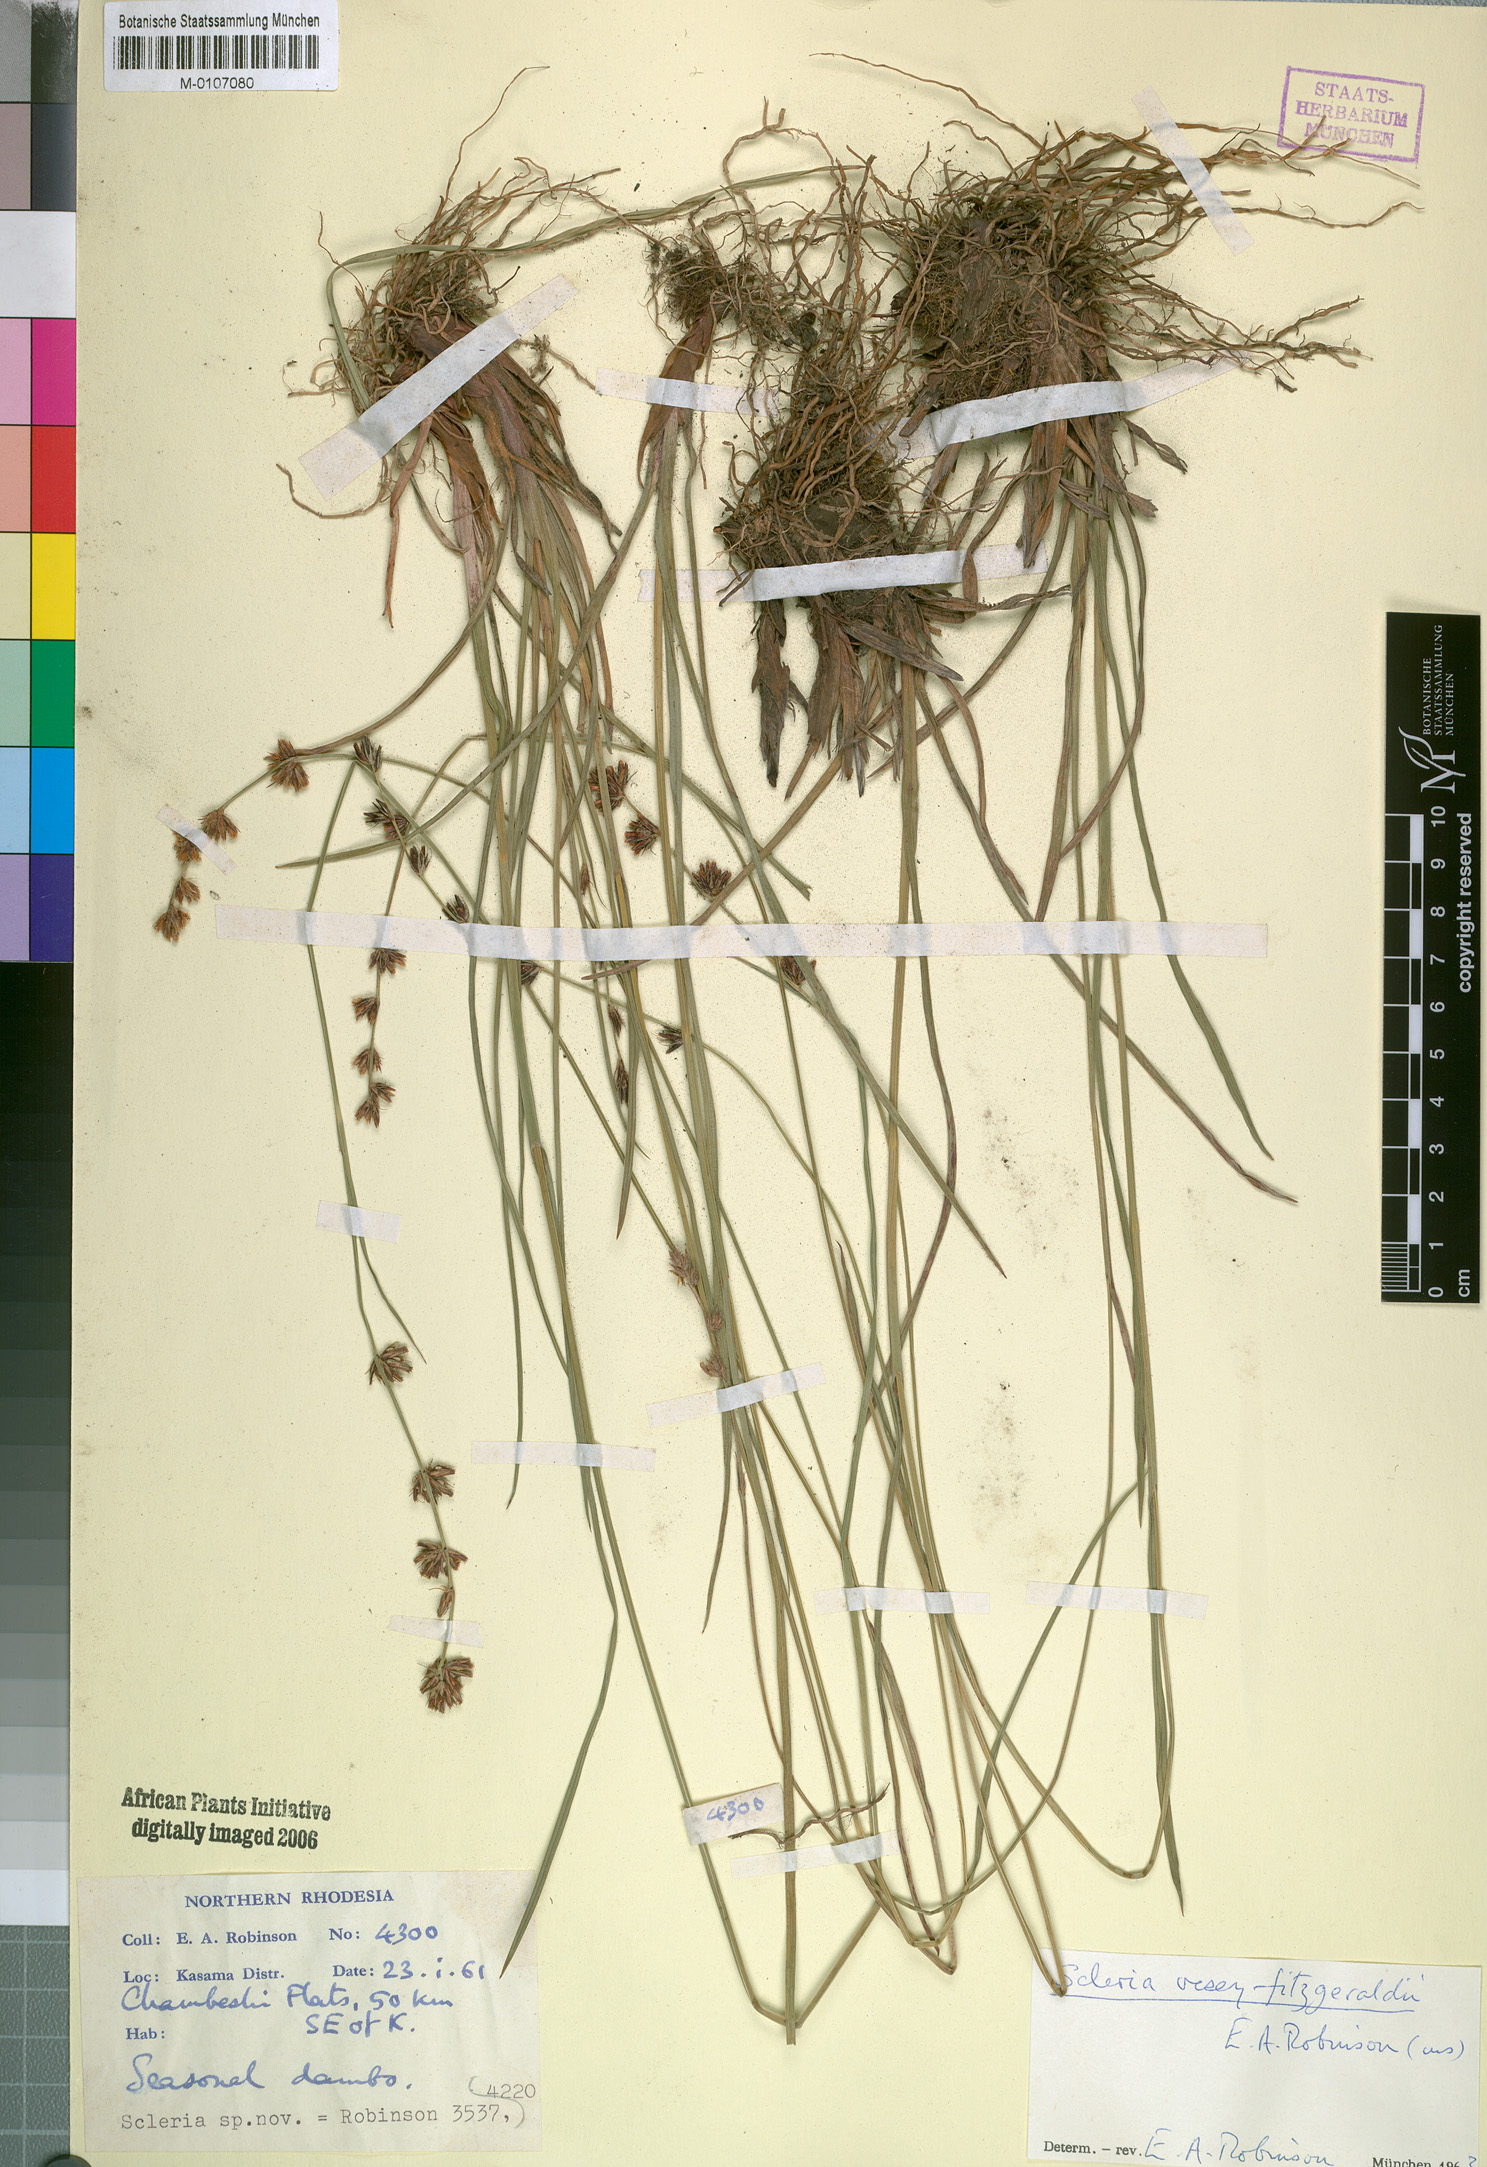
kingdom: Plantae
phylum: Tracheophyta
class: Liliopsida
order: Poales
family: Cyperaceae
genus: Scleria
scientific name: Scleria veseyfitzgeraldii
